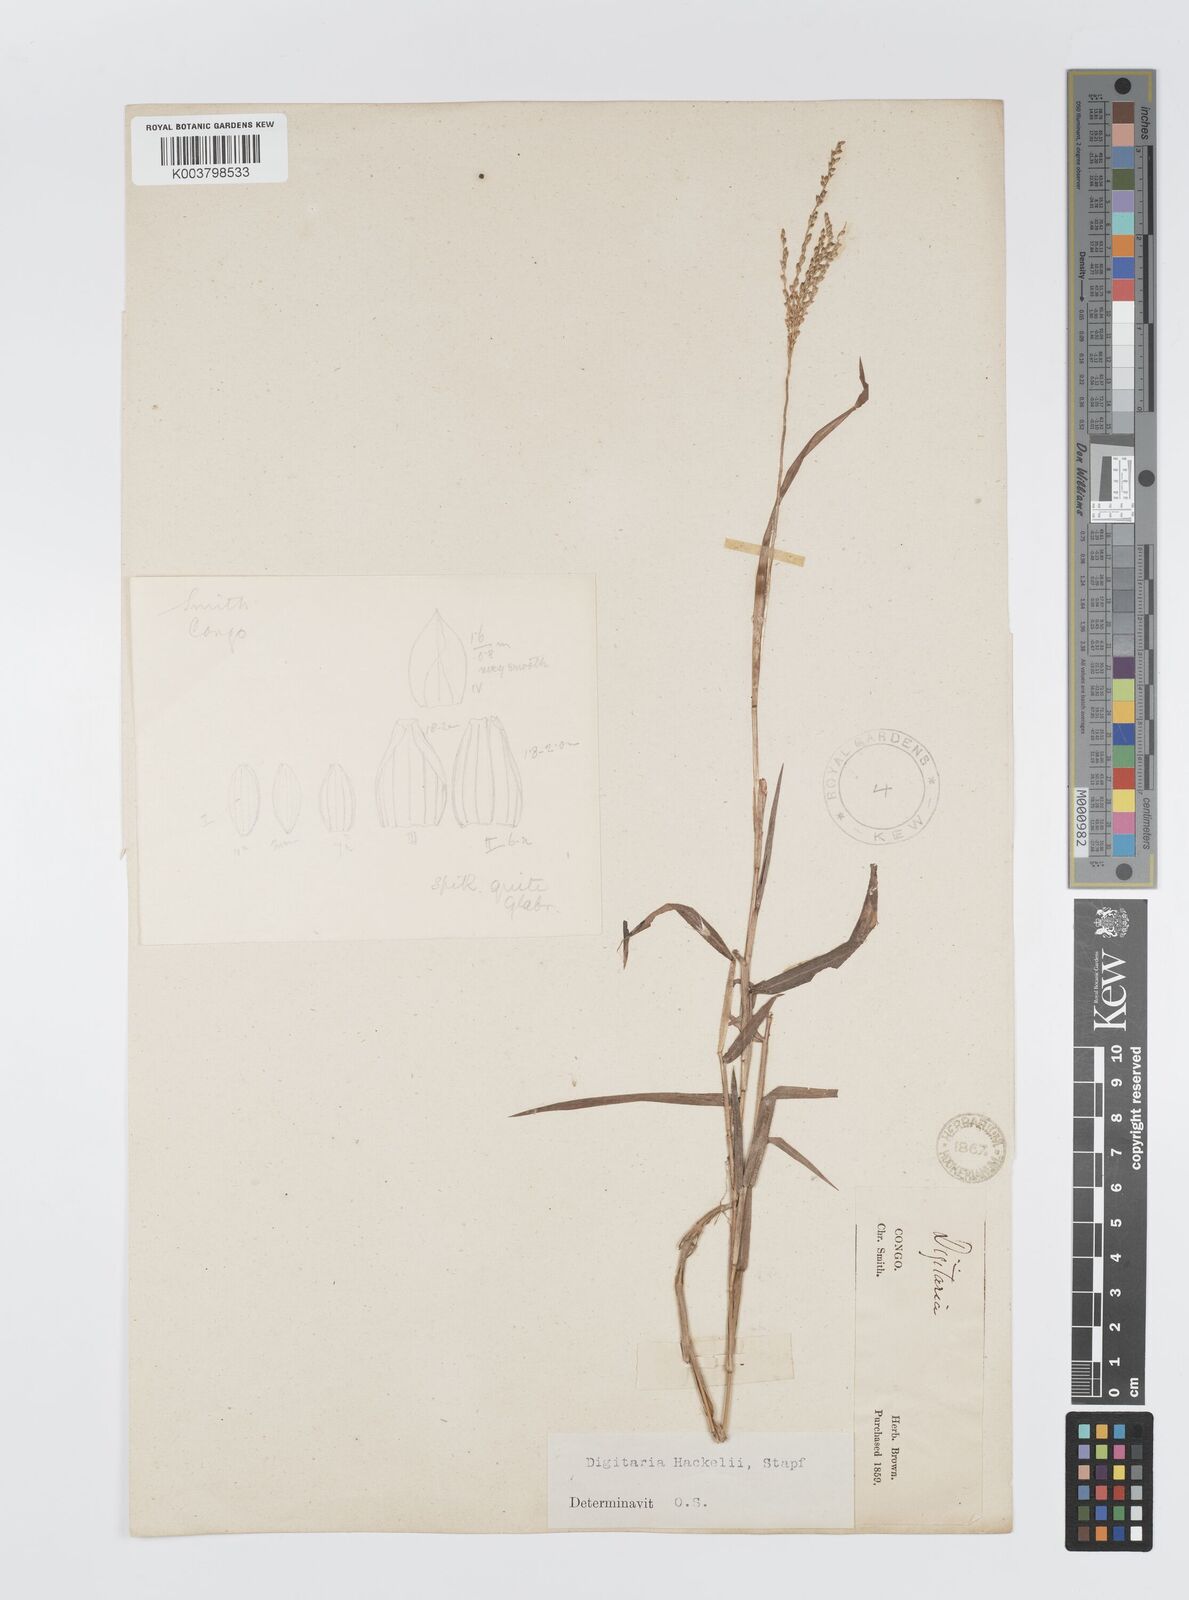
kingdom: Plantae
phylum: Tracheophyta
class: Liliopsida
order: Poales
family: Poaceae
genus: Digitaria
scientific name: Digitaria abyssinica
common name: African couchgrass
